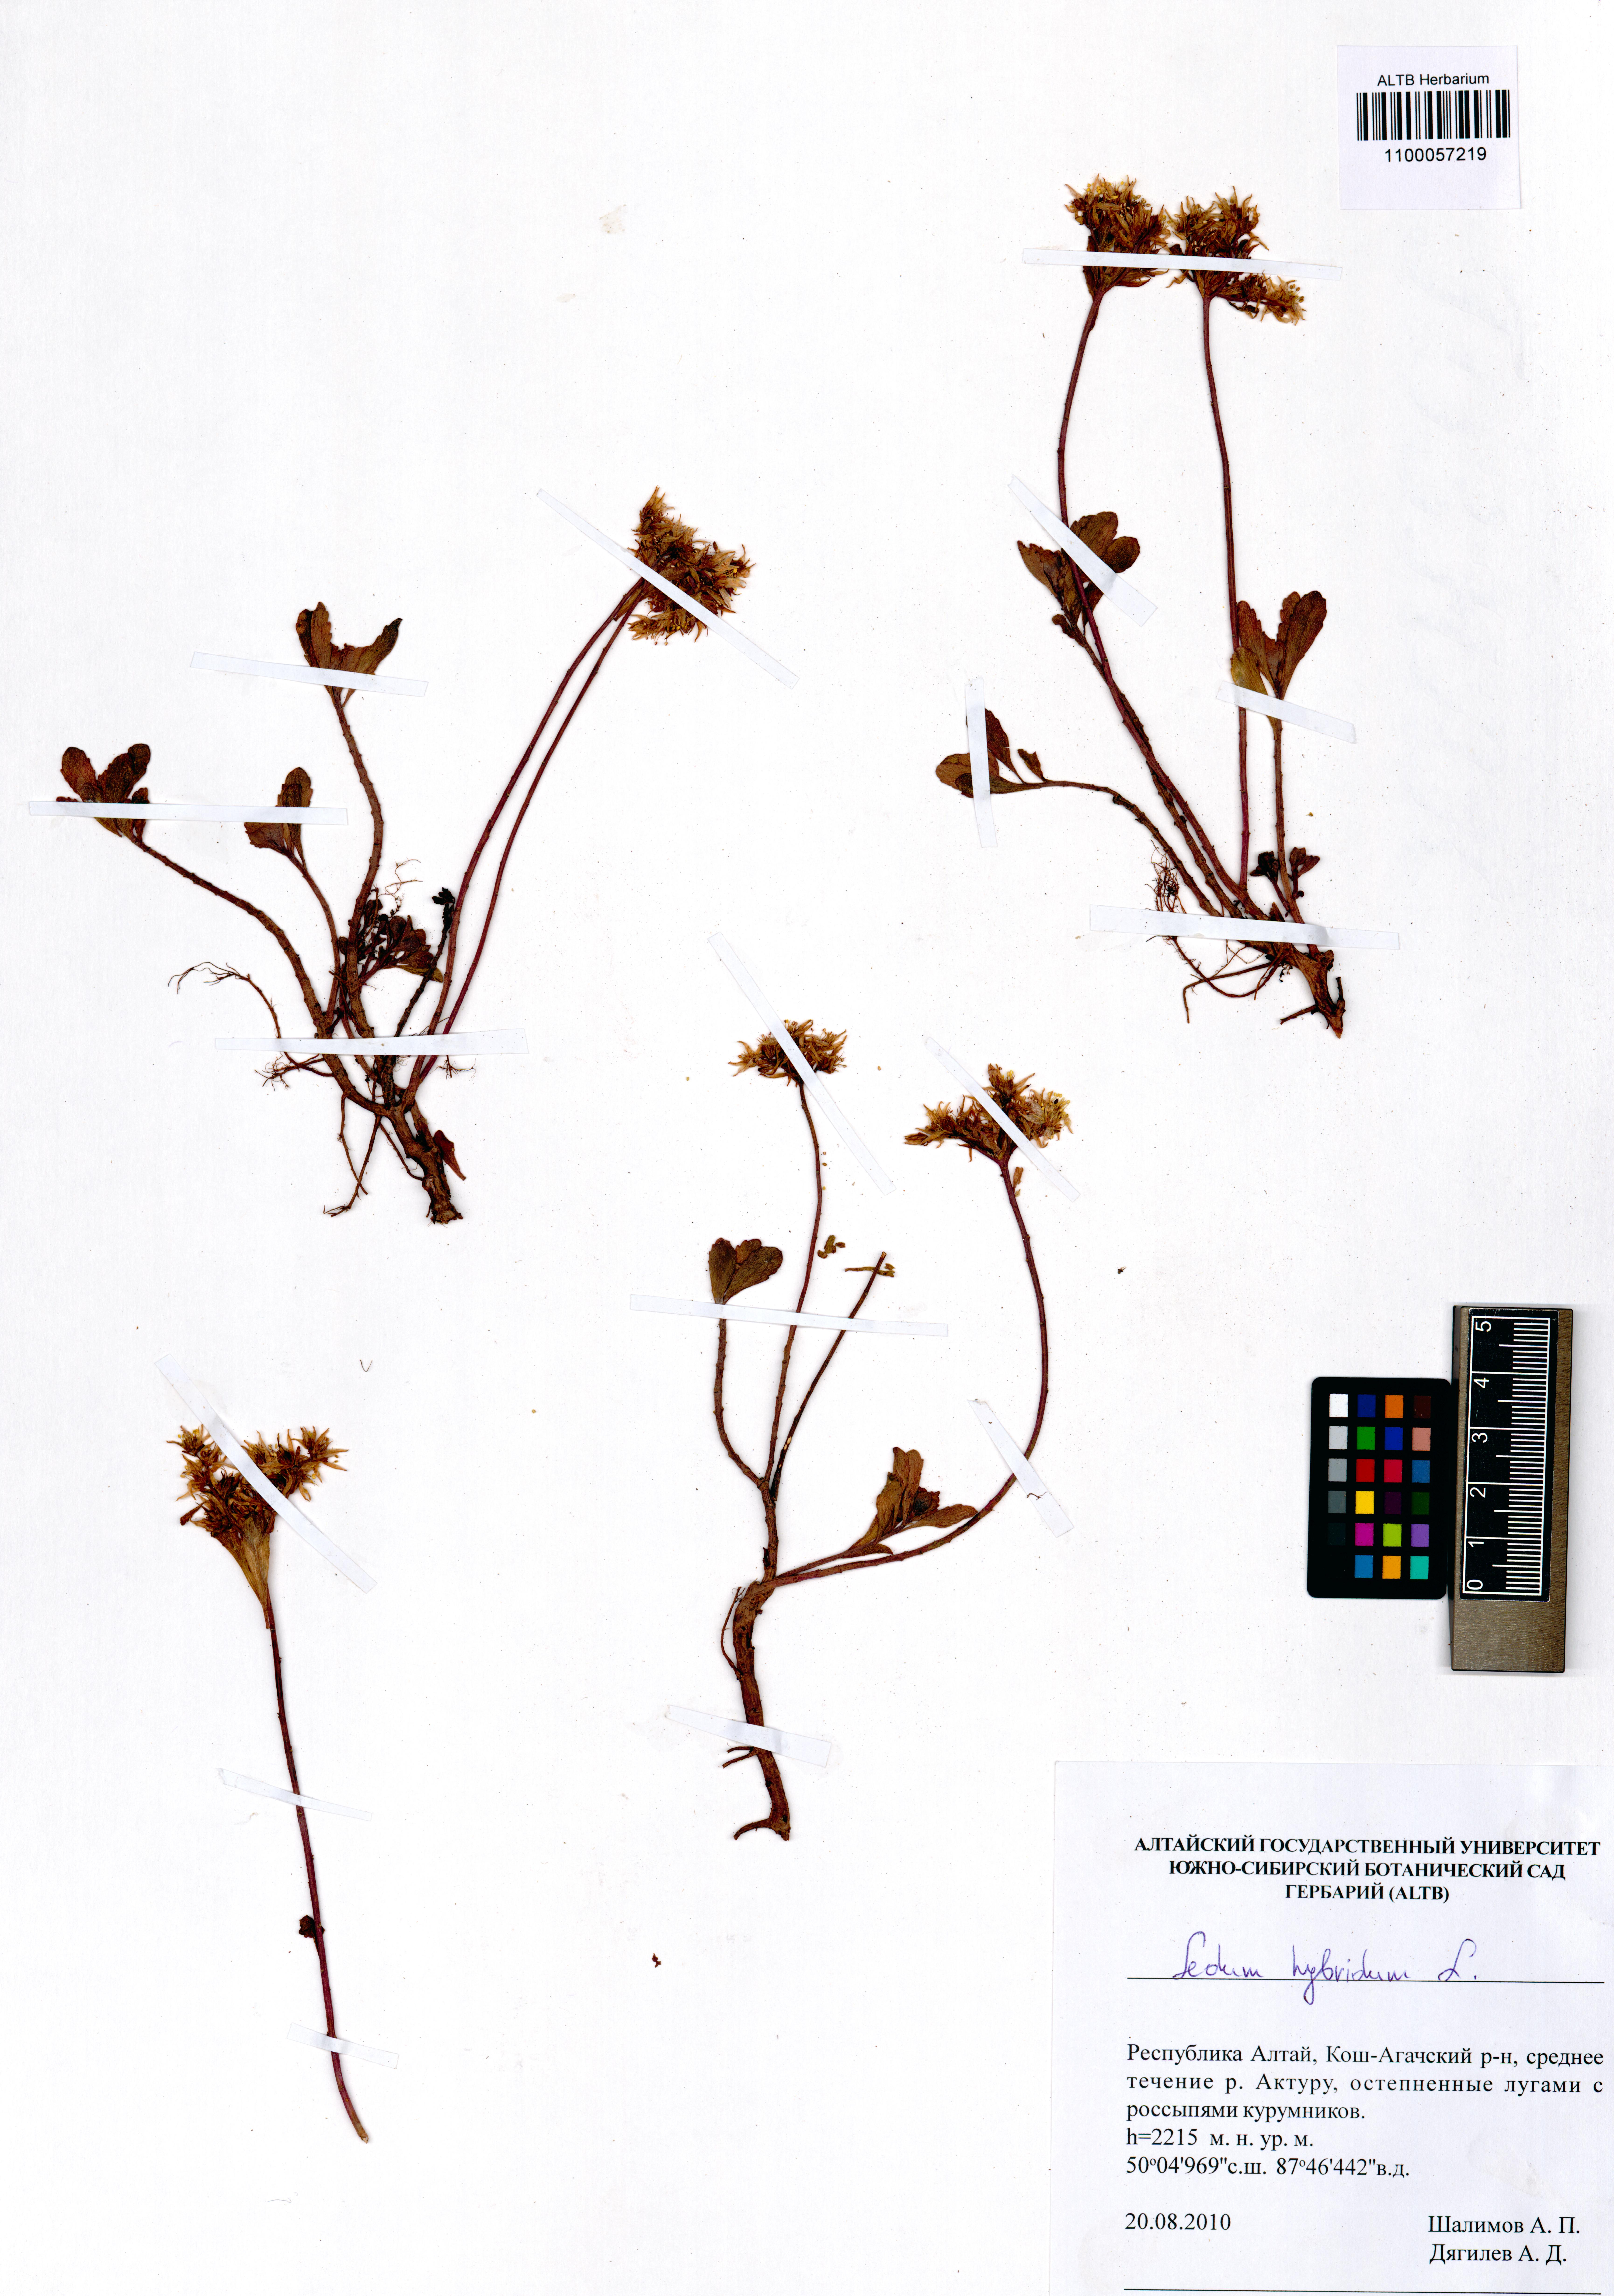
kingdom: Plantae
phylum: Tracheophyta
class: Magnoliopsida
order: Saxifragales
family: Crassulaceae
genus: Phedimus
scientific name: Phedimus hybridus
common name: Hybrid stonecrop
